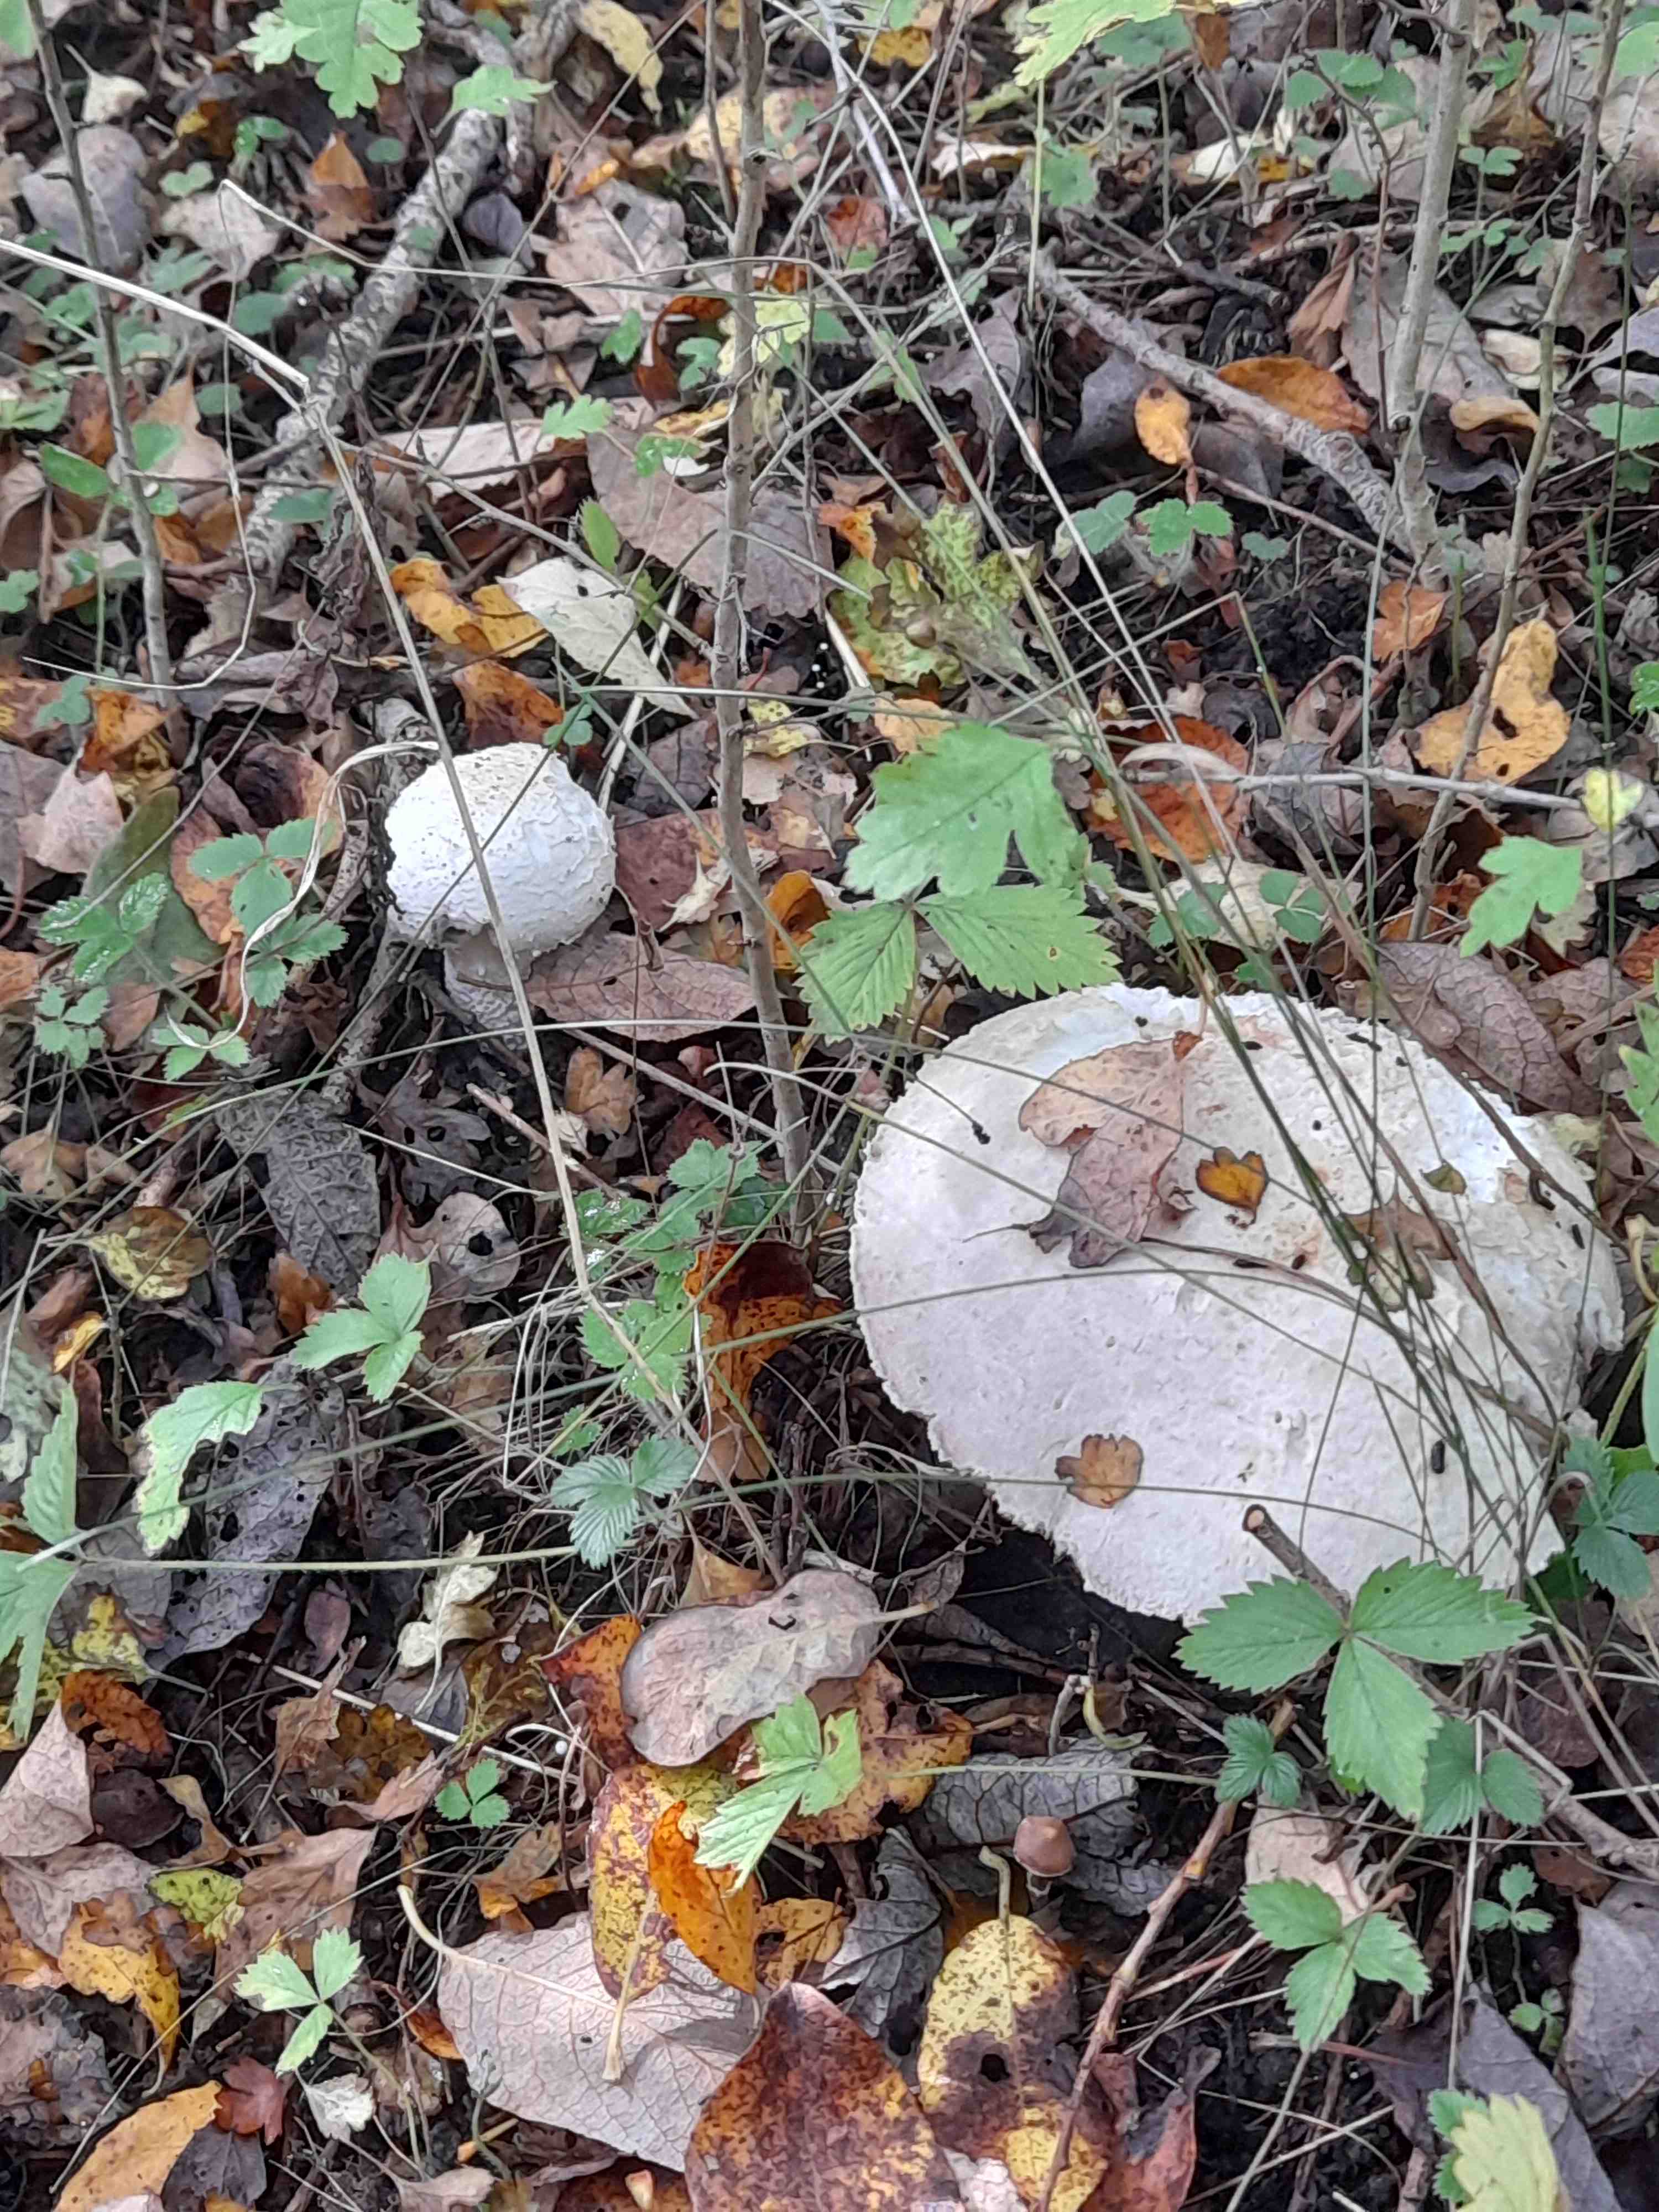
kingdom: Fungi
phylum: Basidiomycota
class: Agaricomycetes
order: Agaricales
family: Agaricaceae
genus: Agaricus
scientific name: Agaricus
